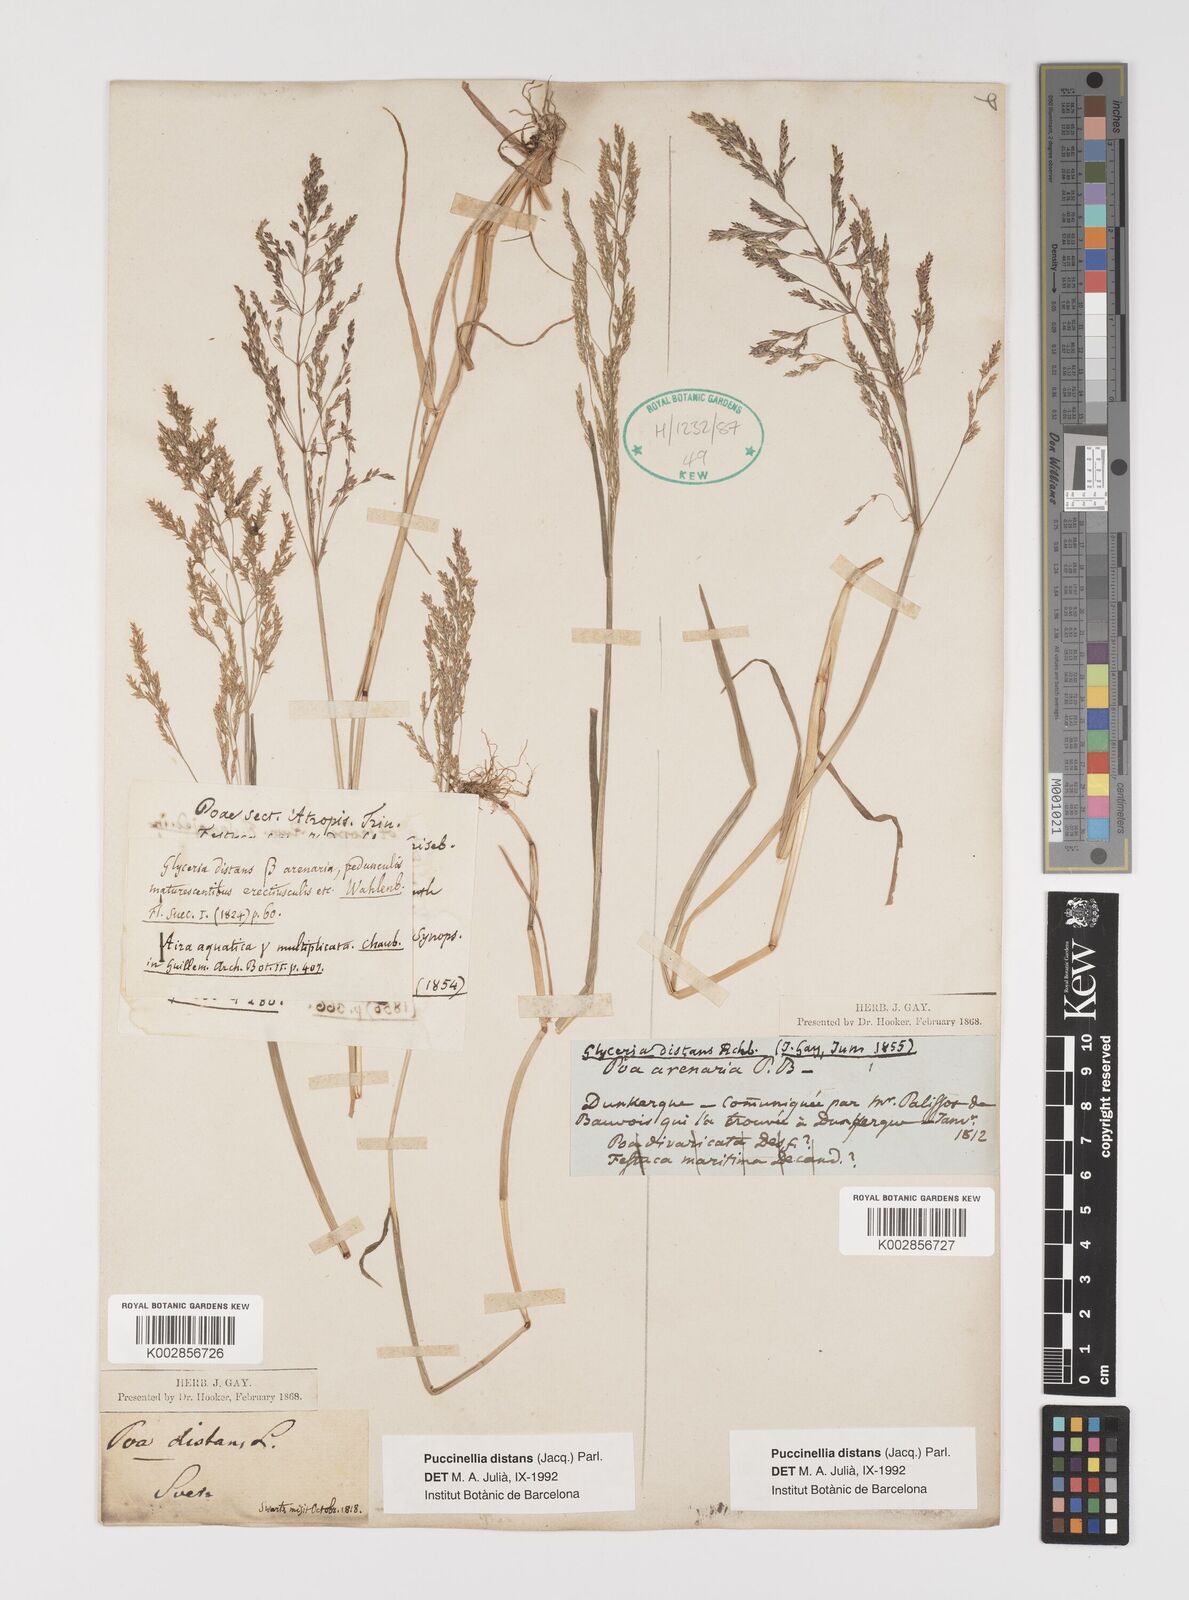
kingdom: Plantae
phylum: Tracheophyta
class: Liliopsida
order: Poales
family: Poaceae
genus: Puccinellia
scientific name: Puccinellia distans
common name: Weeping alkaligrass
